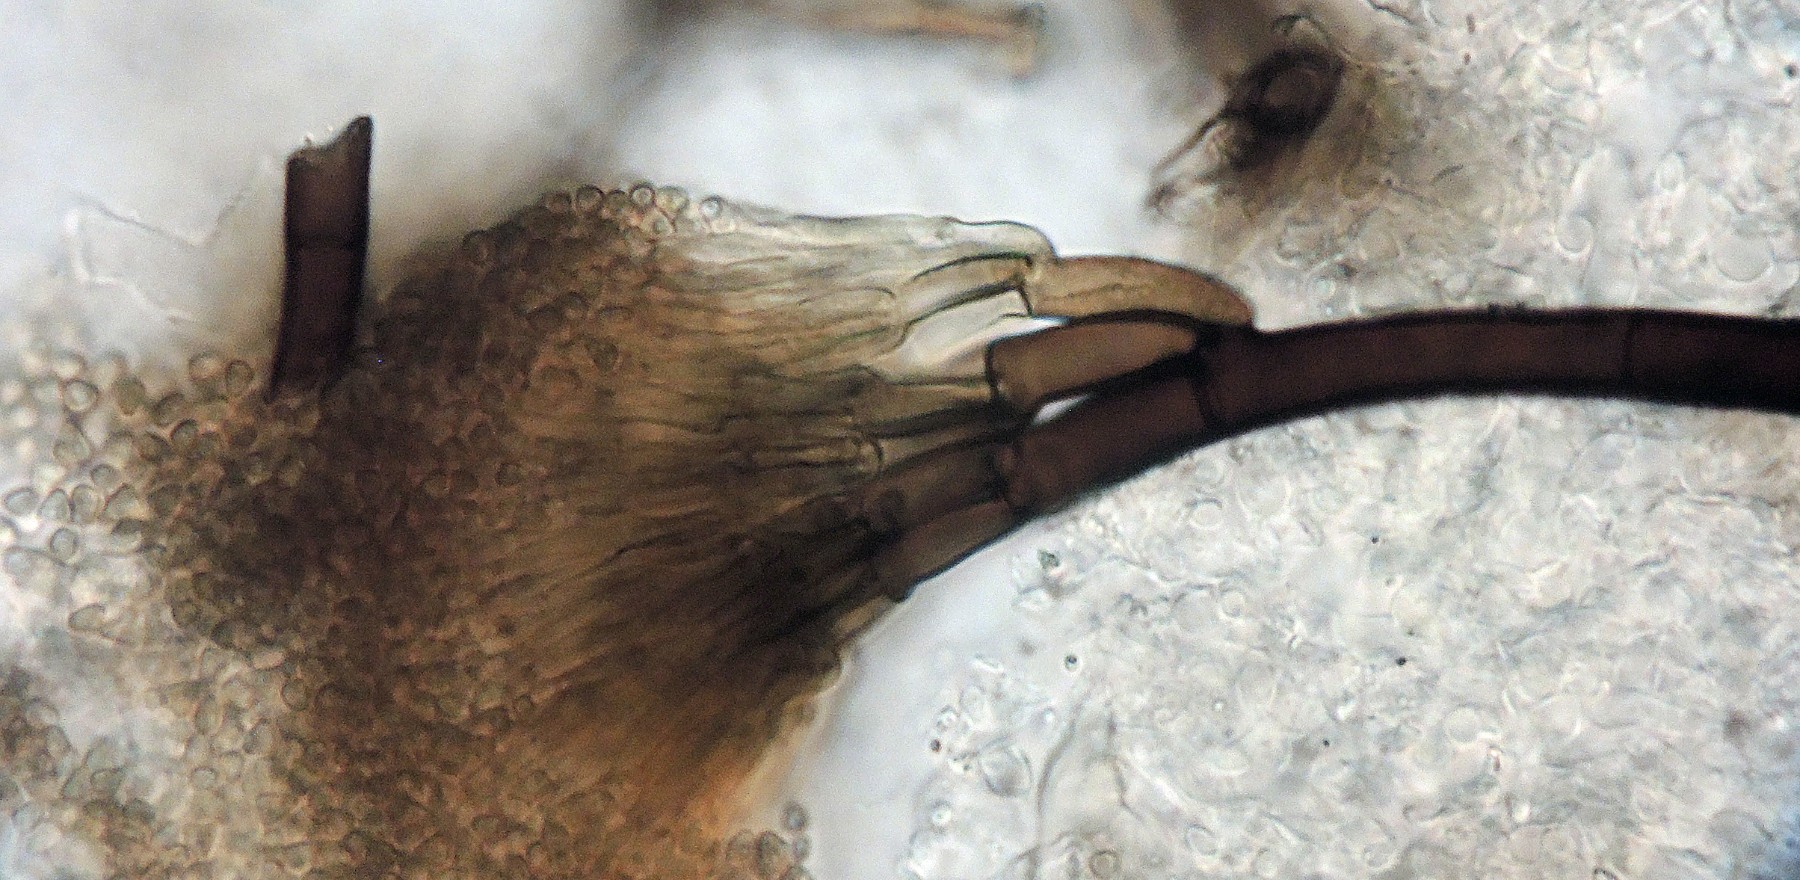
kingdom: Fungi
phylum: Ascomycota
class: Leotiomycetes
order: Helotiales
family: Mollisiaceae
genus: Phialocephala
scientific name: Phialocephala trigonospora
